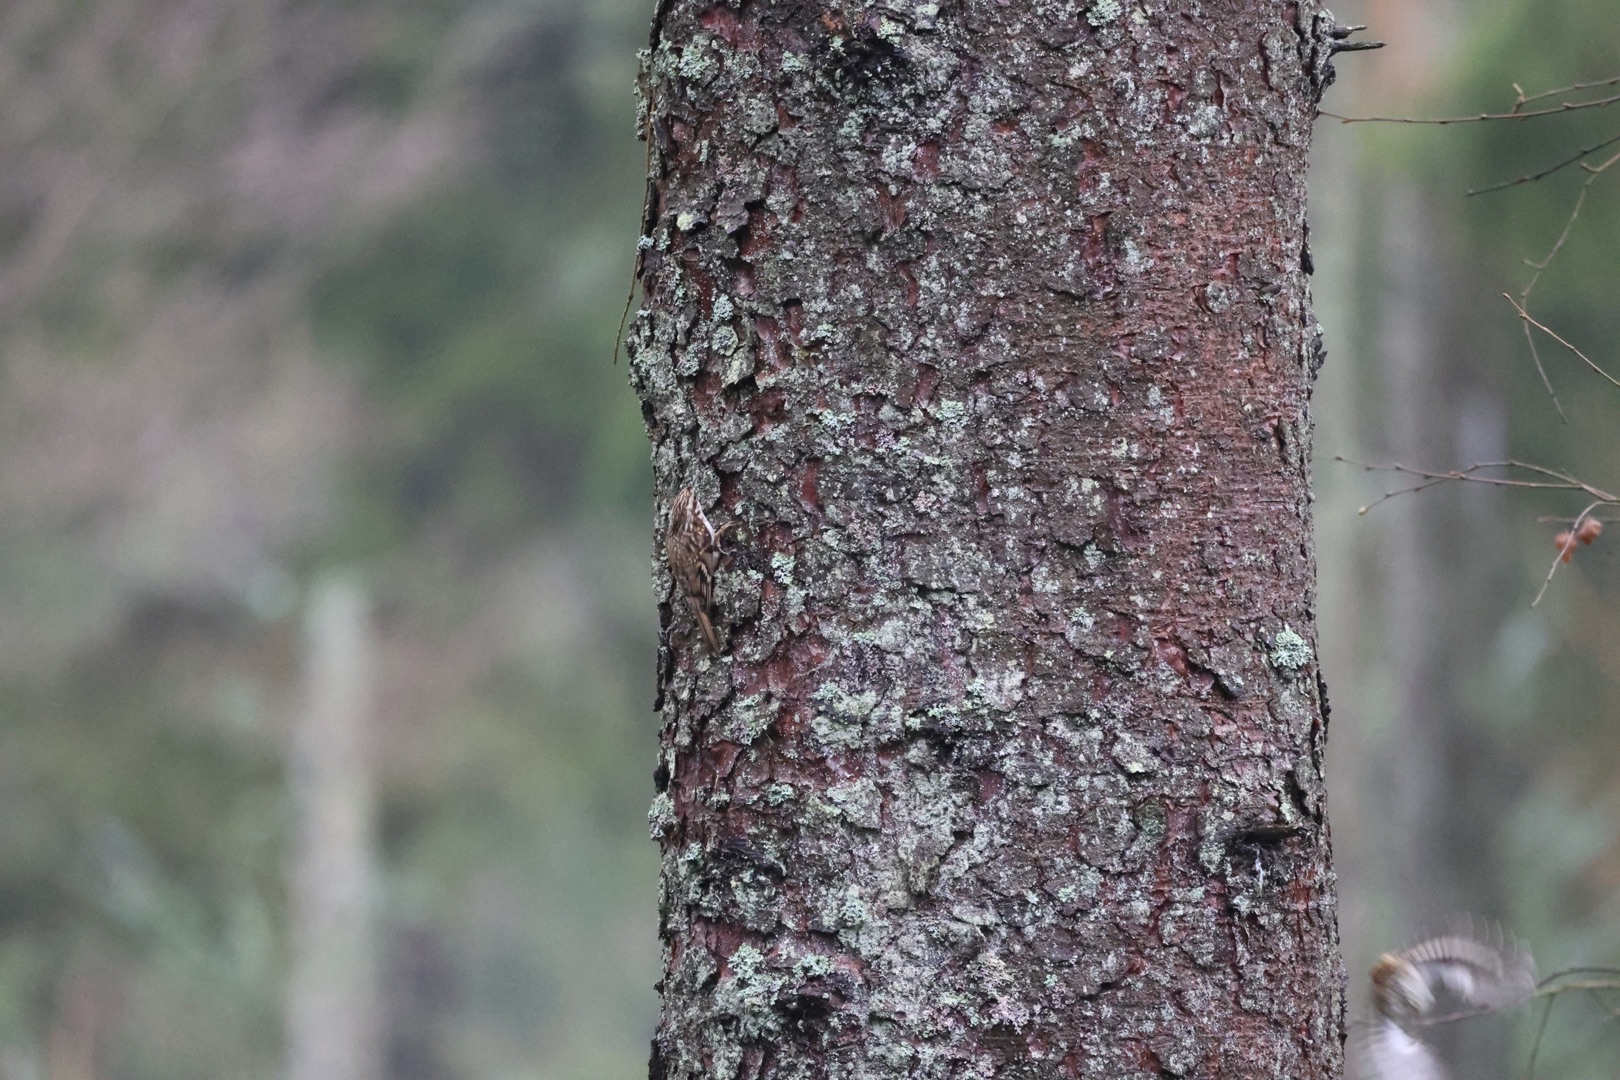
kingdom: Animalia
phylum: Chordata
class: Aves
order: Passeriformes
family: Certhiidae
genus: Certhia
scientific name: Certhia familiaris
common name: Træløber
